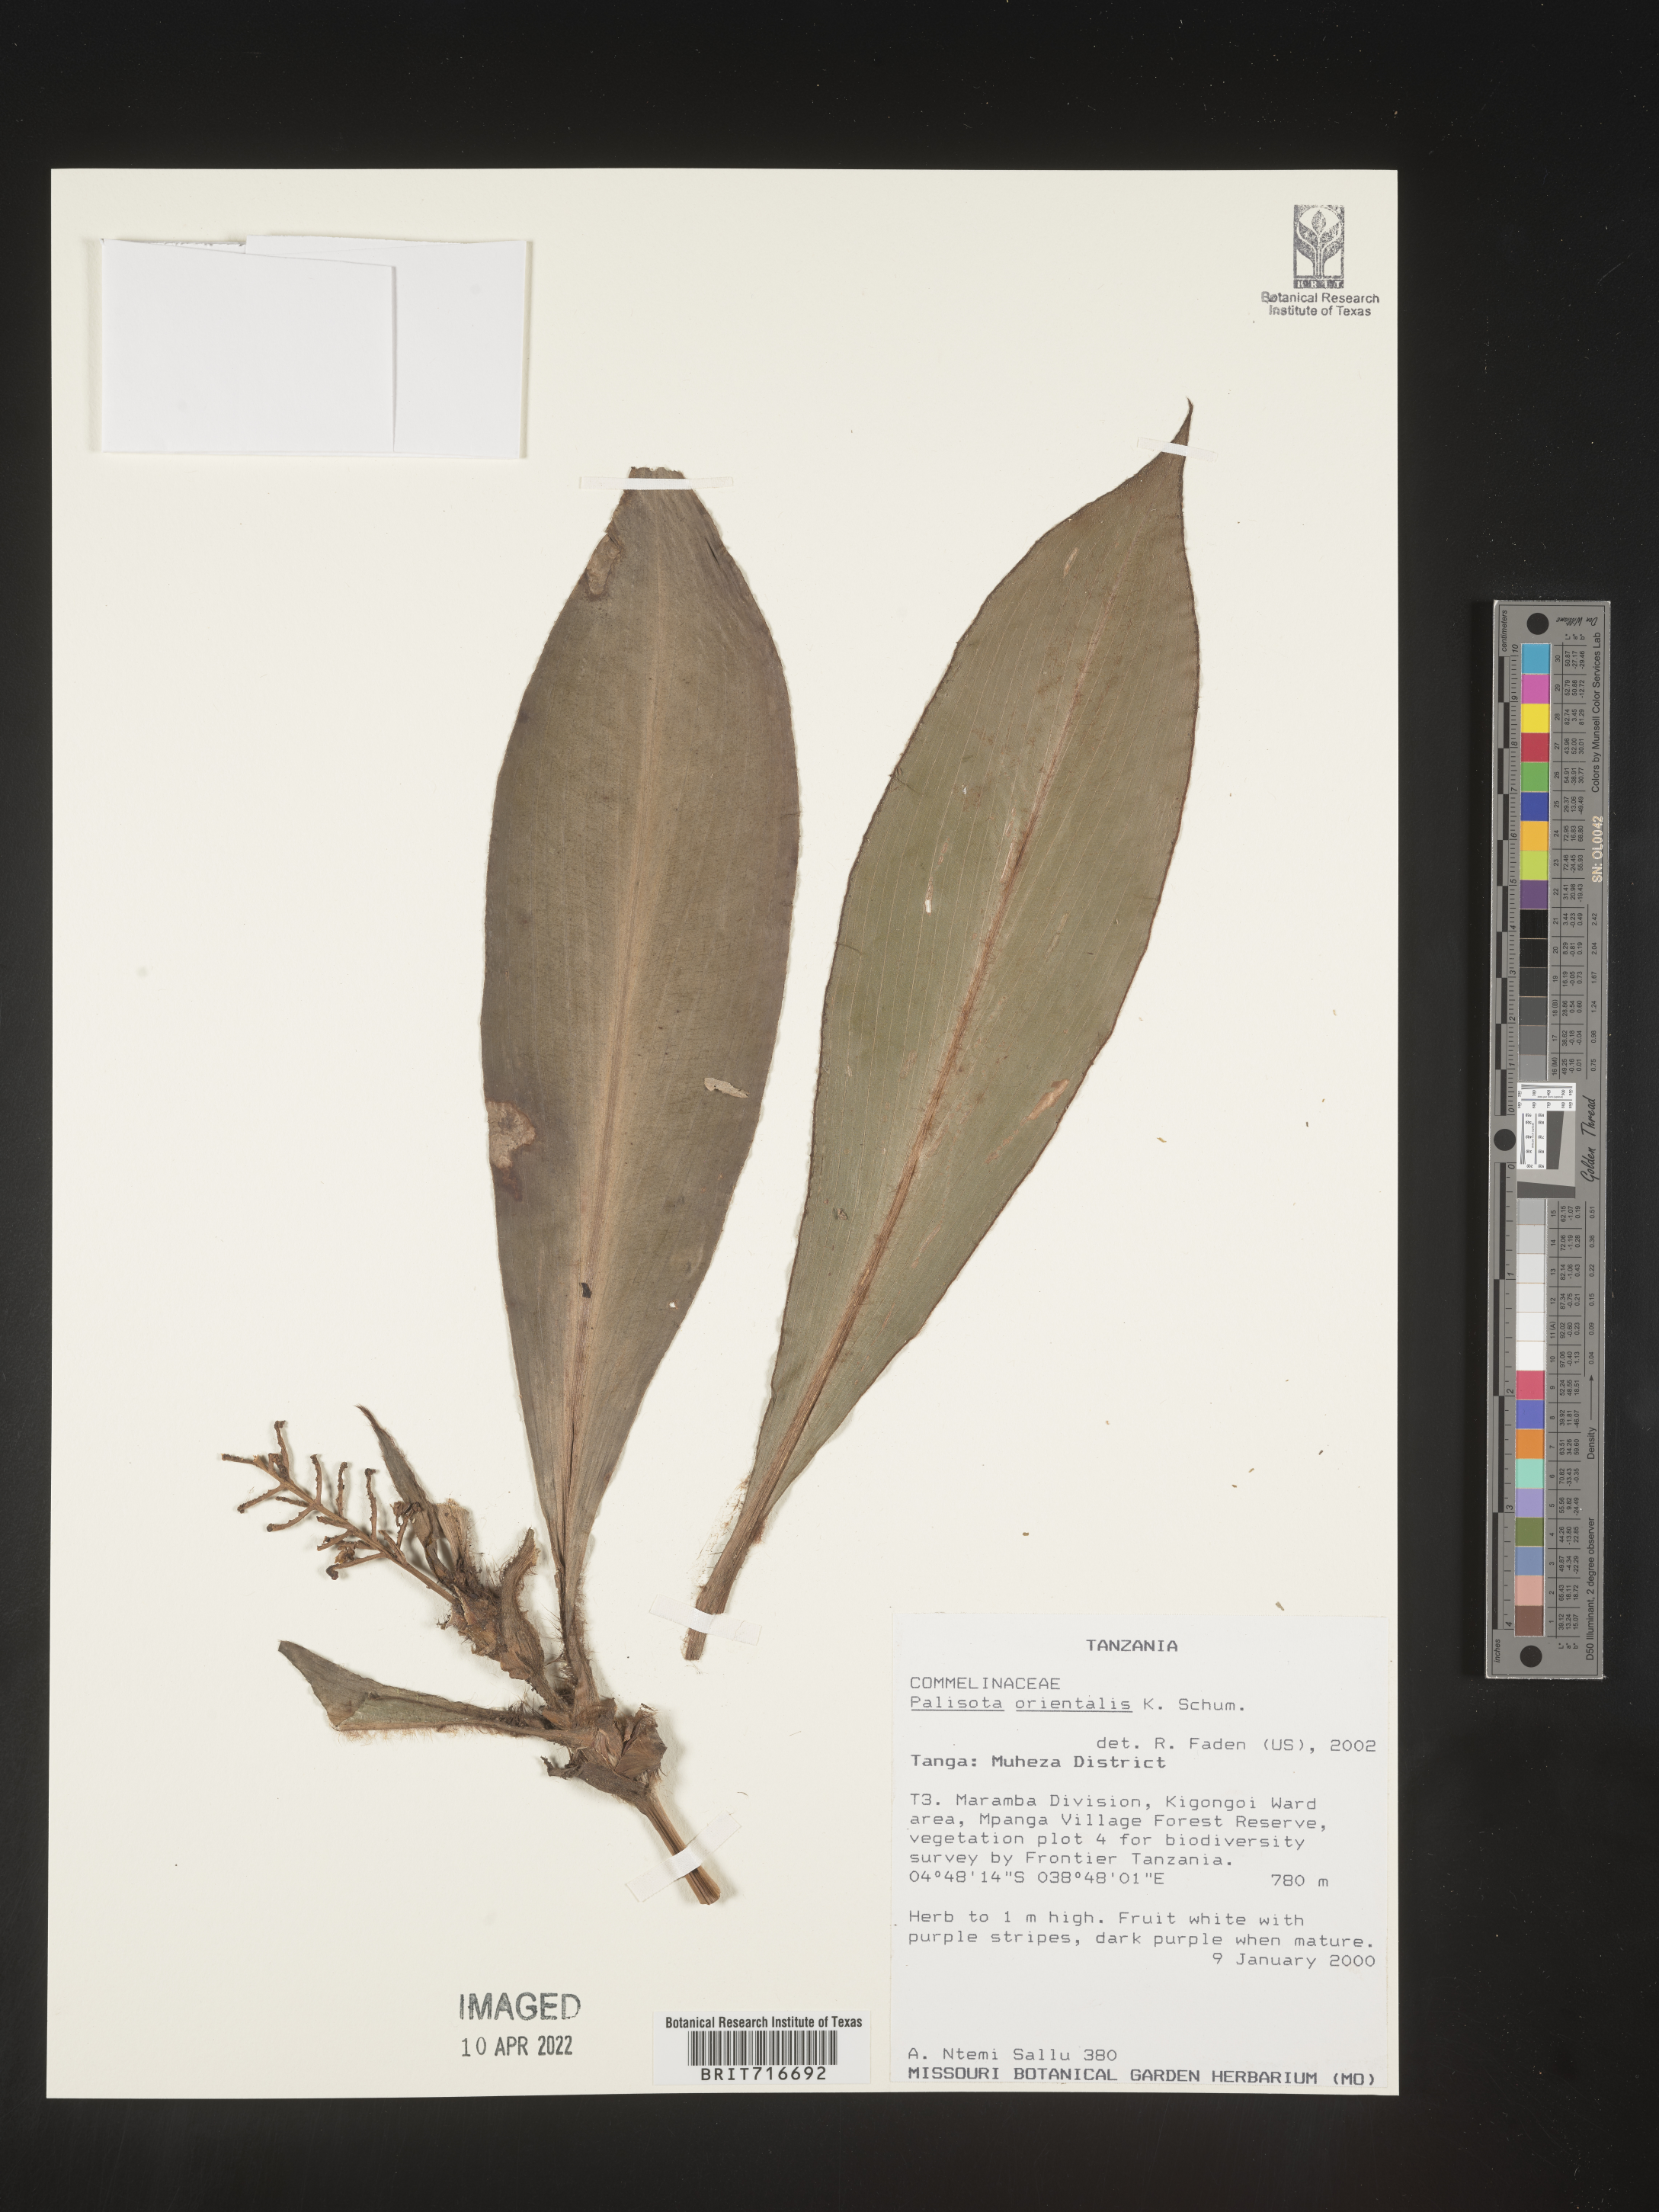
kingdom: Plantae
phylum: Tracheophyta
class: Liliopsida
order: Commelinales
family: Commelinaceae
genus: Palisota
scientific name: Palisota
